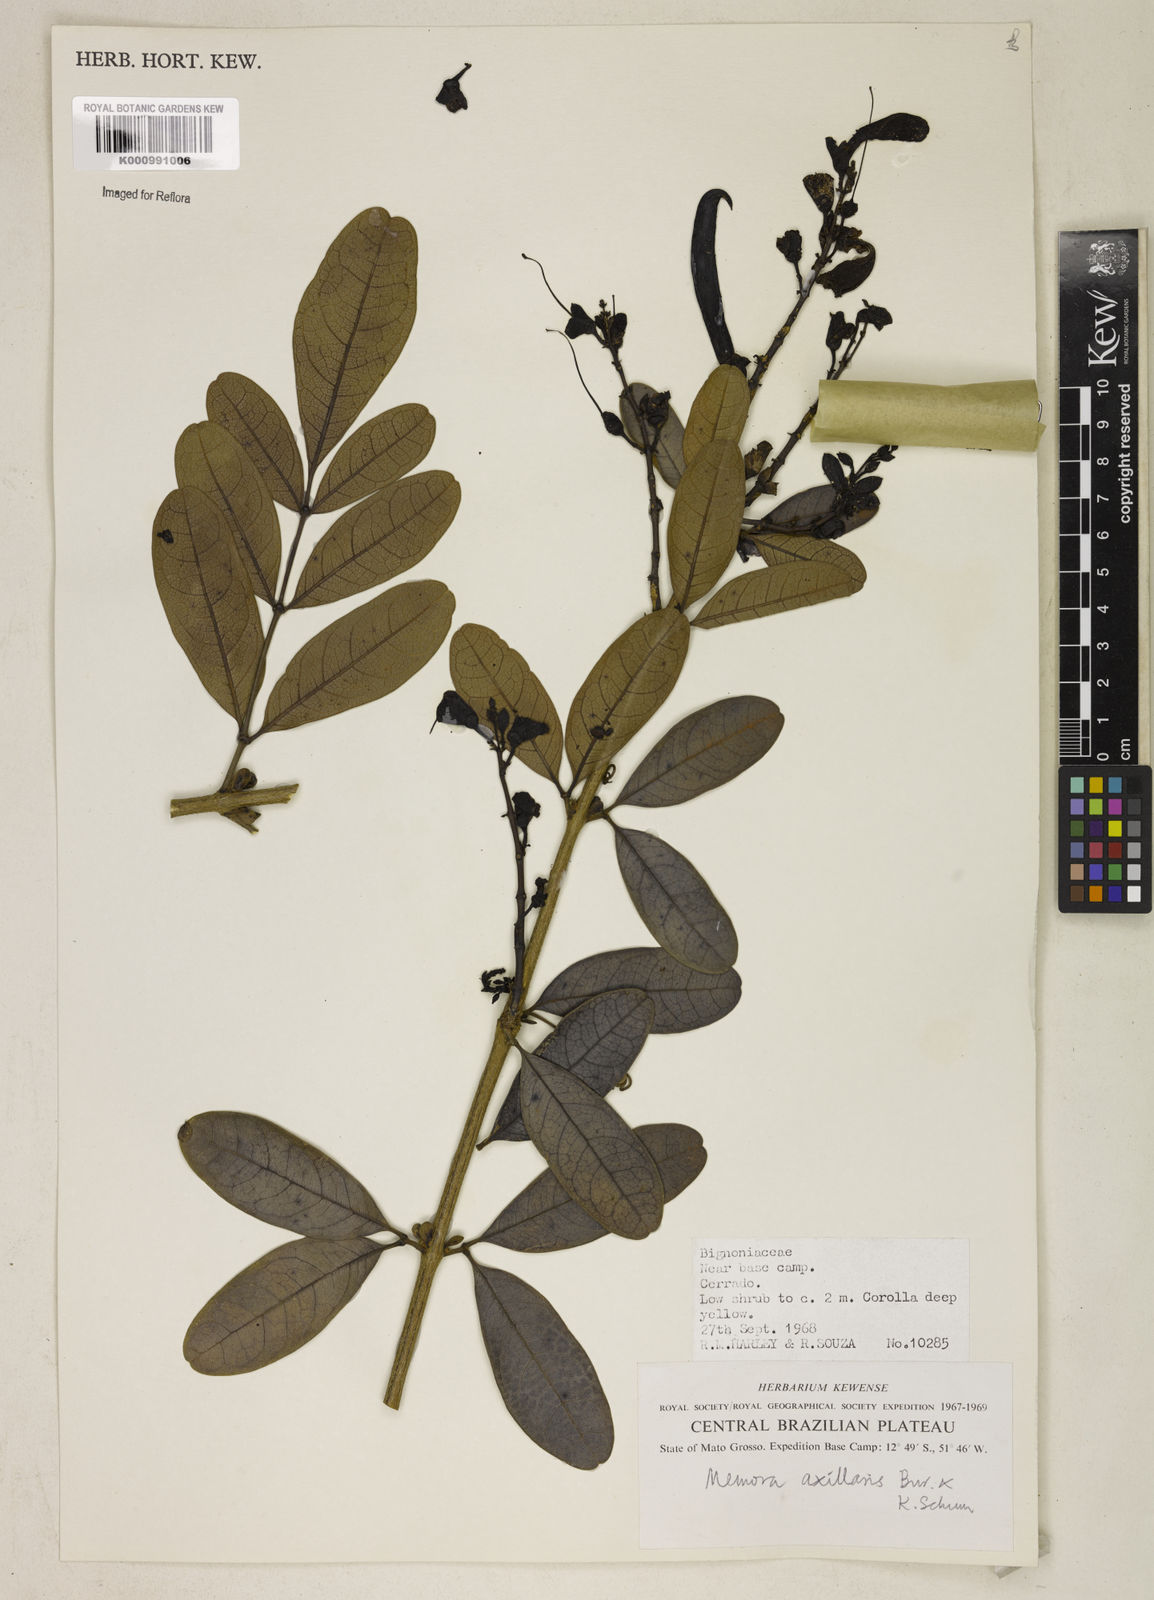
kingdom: Plantae
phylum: Tracheophyta
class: Magnoliopsida
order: Lamiales
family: Bignoniaceae
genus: Adenocalymma
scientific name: Adenocalymma axillare
